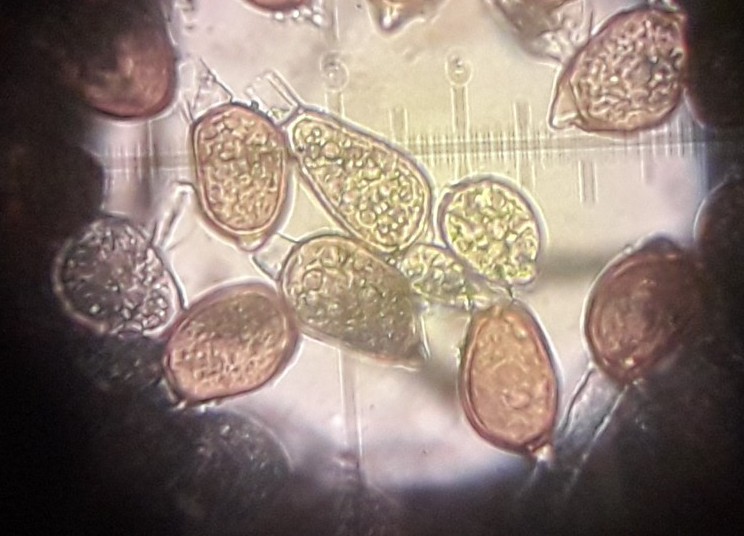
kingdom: Fungi
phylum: Basidiomycota
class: Pucciniomycetes
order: Pucciniales
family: Pucciniaceae
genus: Uromyces
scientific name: Uromyces ficariae
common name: vorterod-encellerust
